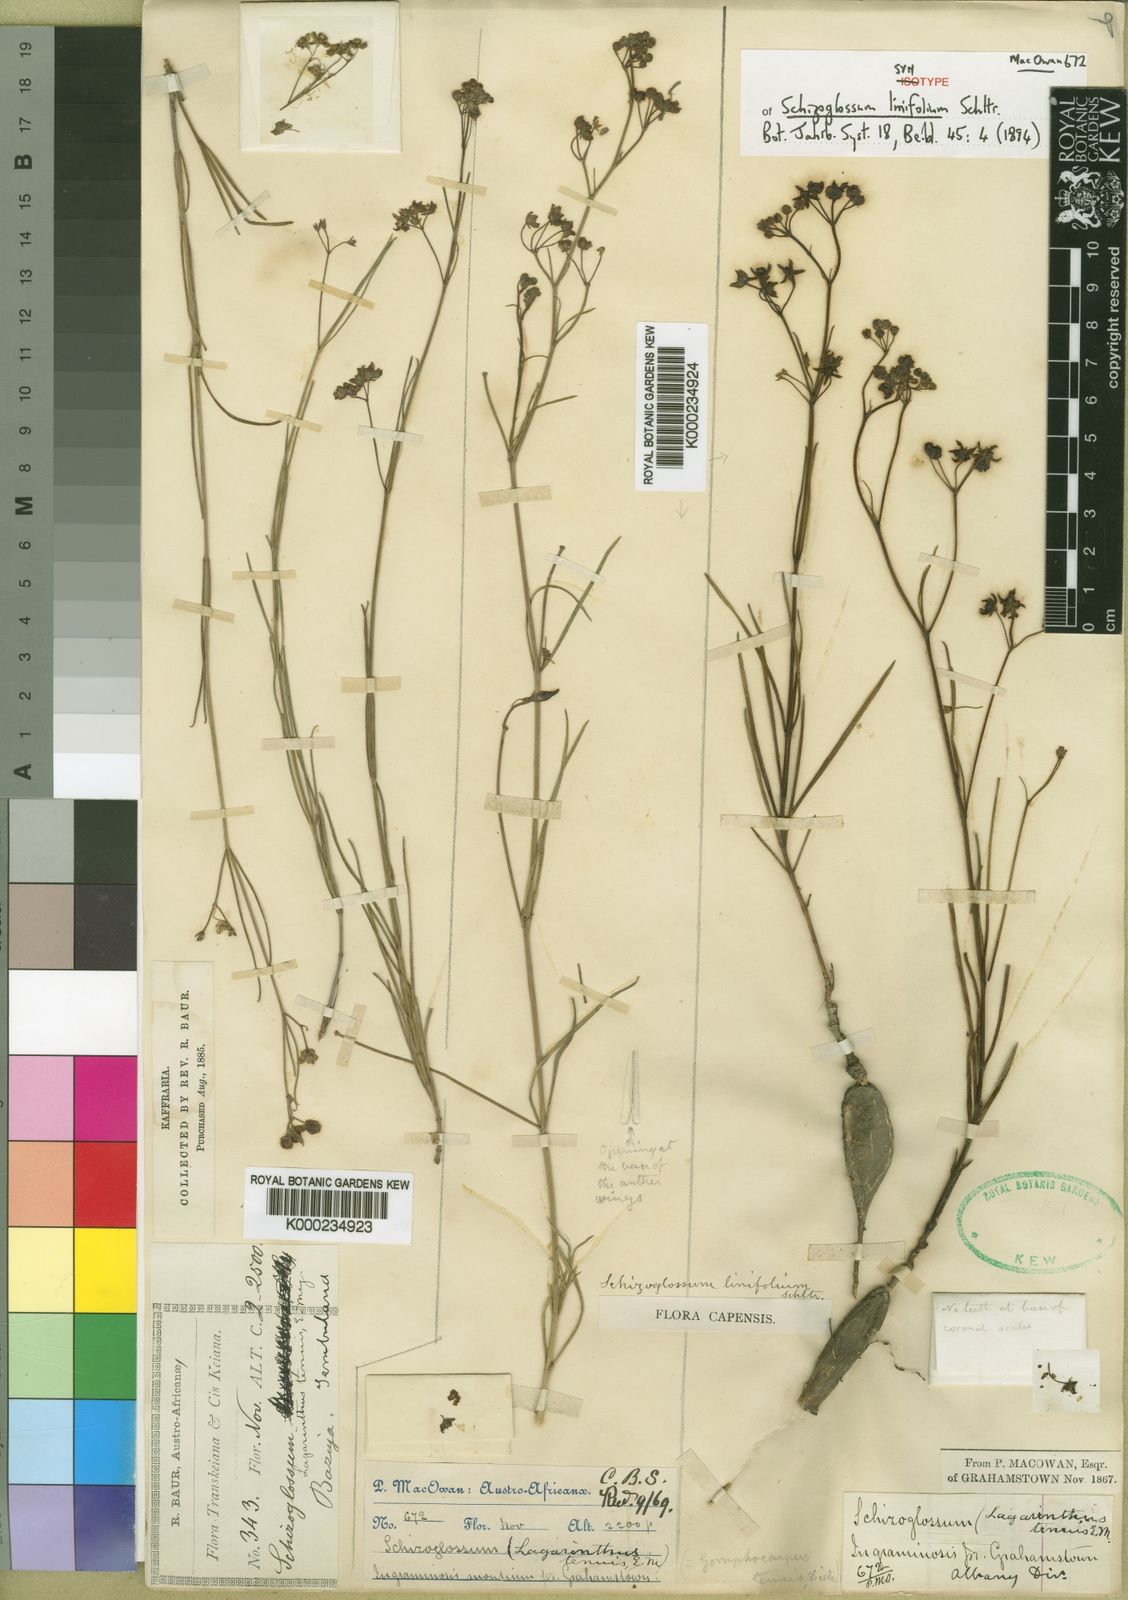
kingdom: Plantae
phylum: Tracheophyta
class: Magnoliopsida
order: Gentianales
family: Apocynaceae
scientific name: Apocynaceae
